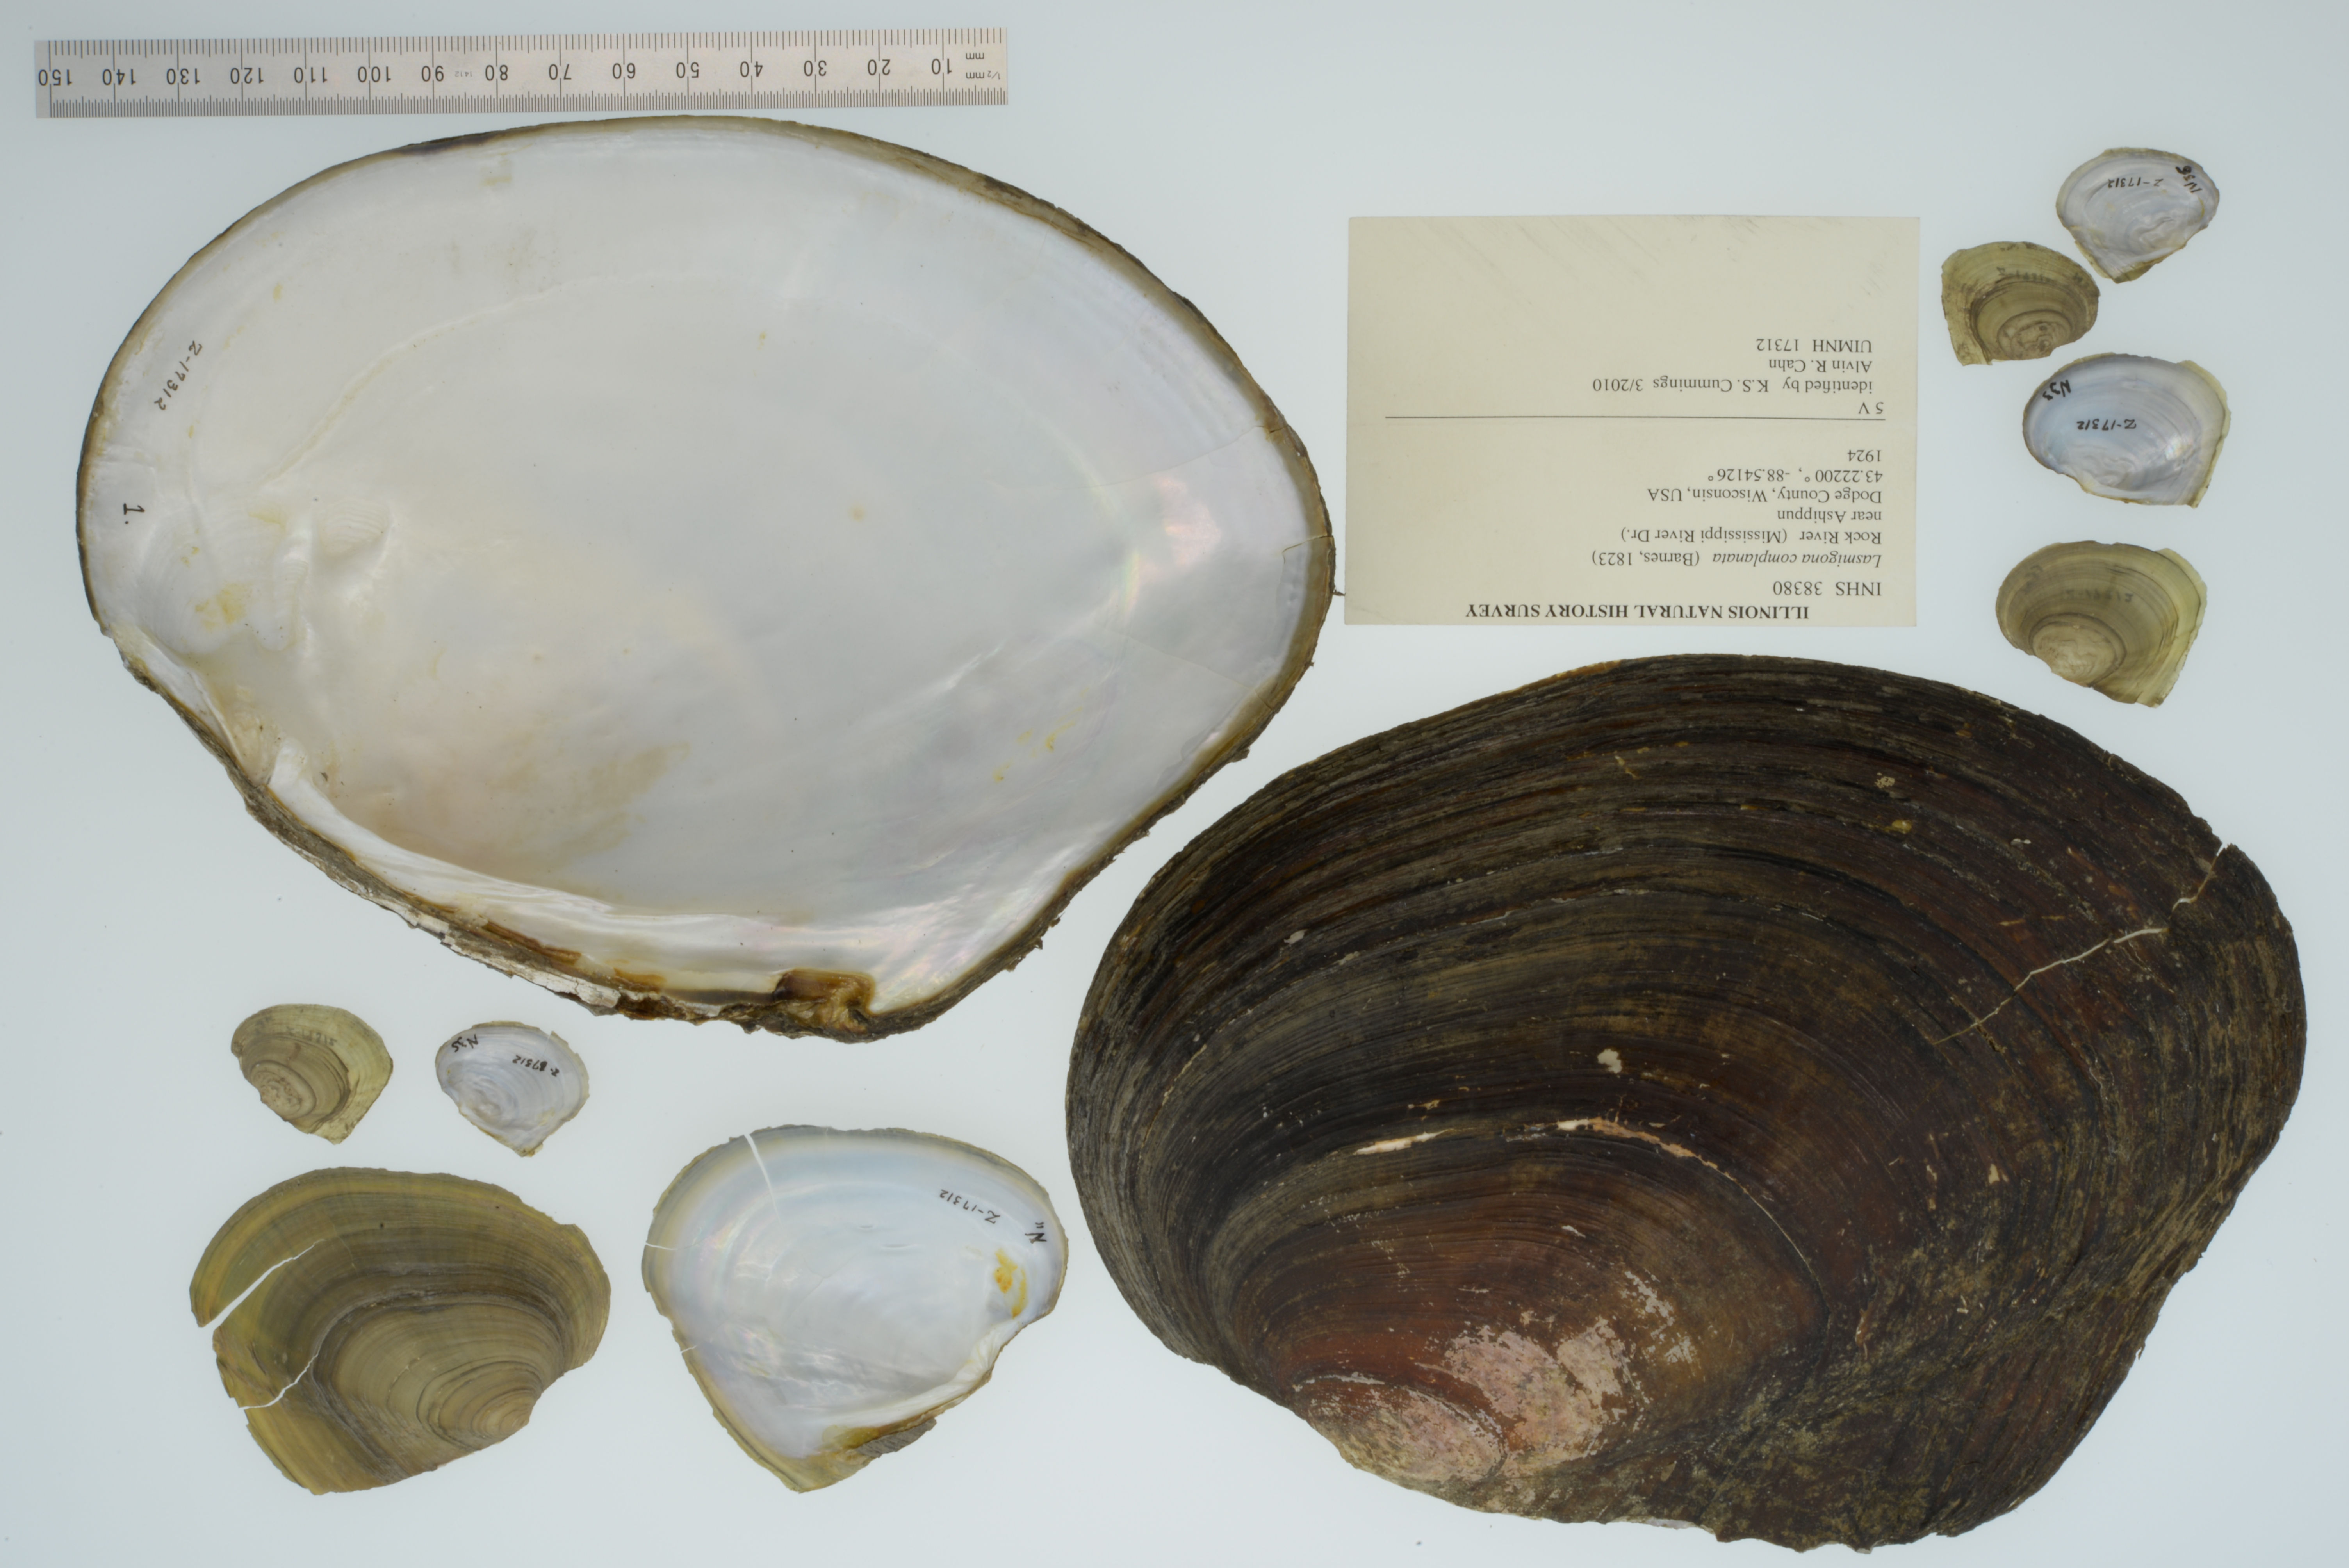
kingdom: Animalia
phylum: Mollusca
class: Bivalvia
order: Unionida
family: Unionidae
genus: Lasmigona
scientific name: Lasmigona complanata
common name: White heelsplitter
